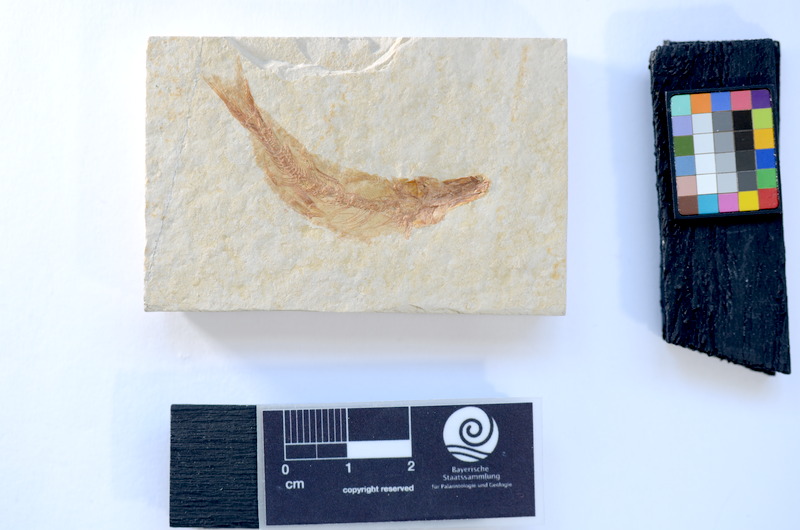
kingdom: Animalia
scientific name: Animalia
